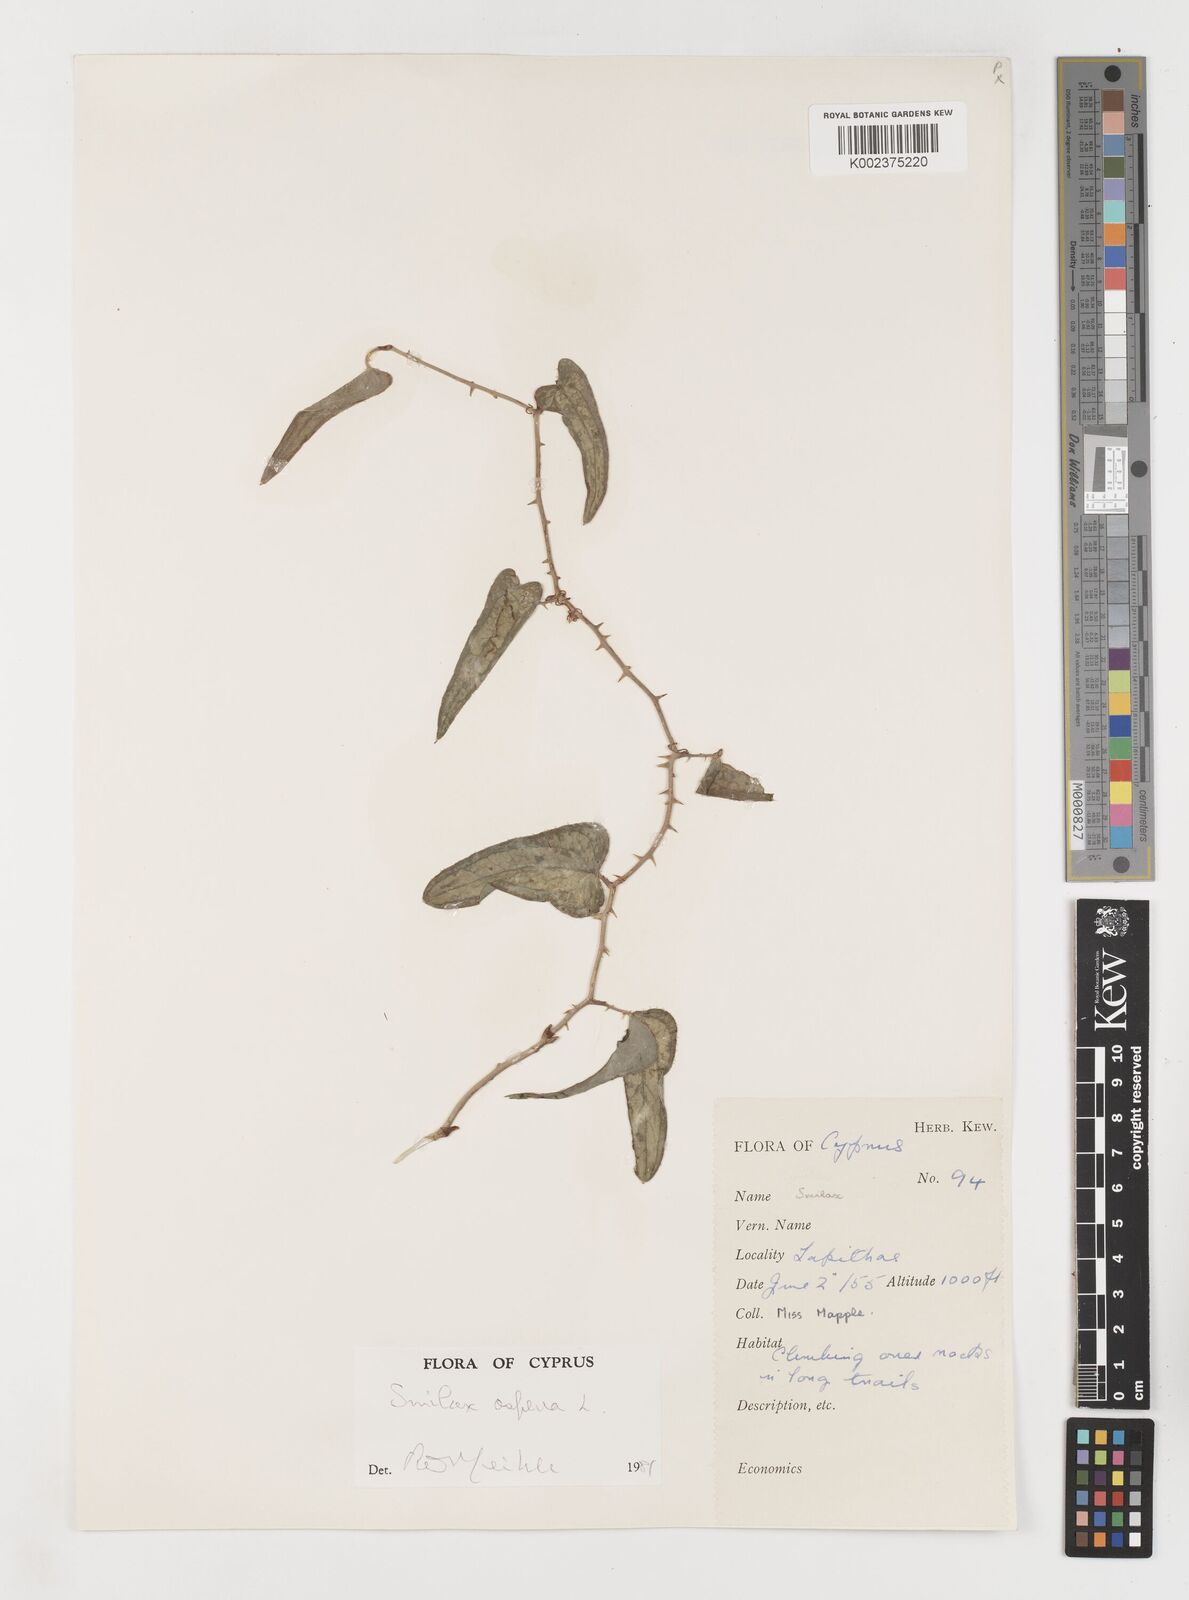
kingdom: Plantae
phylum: Tracheophyta
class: Liliopsida
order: Liliales
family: Smilacaceae
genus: Smilax
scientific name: Smilax aspera
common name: Common smilax
